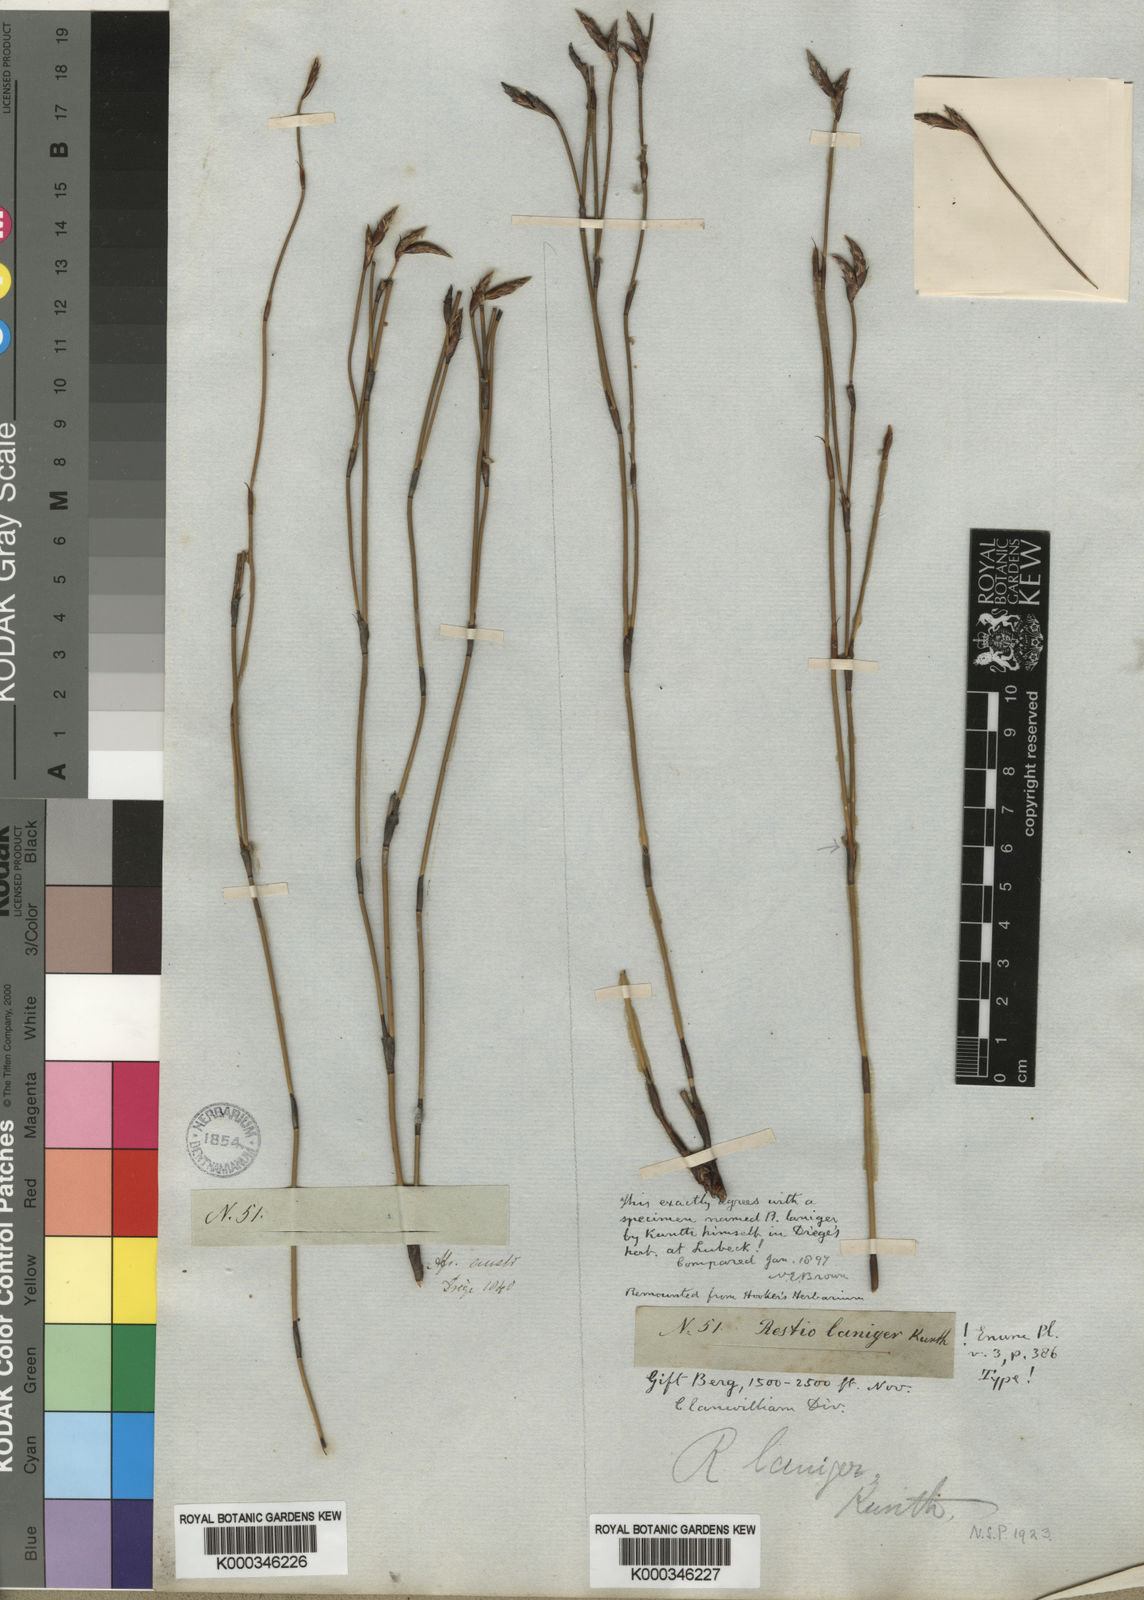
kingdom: Plantae
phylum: Tracheophyta
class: Liliopsida
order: Poales
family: Restionaceae
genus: Restio
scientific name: Restio leptoclados
